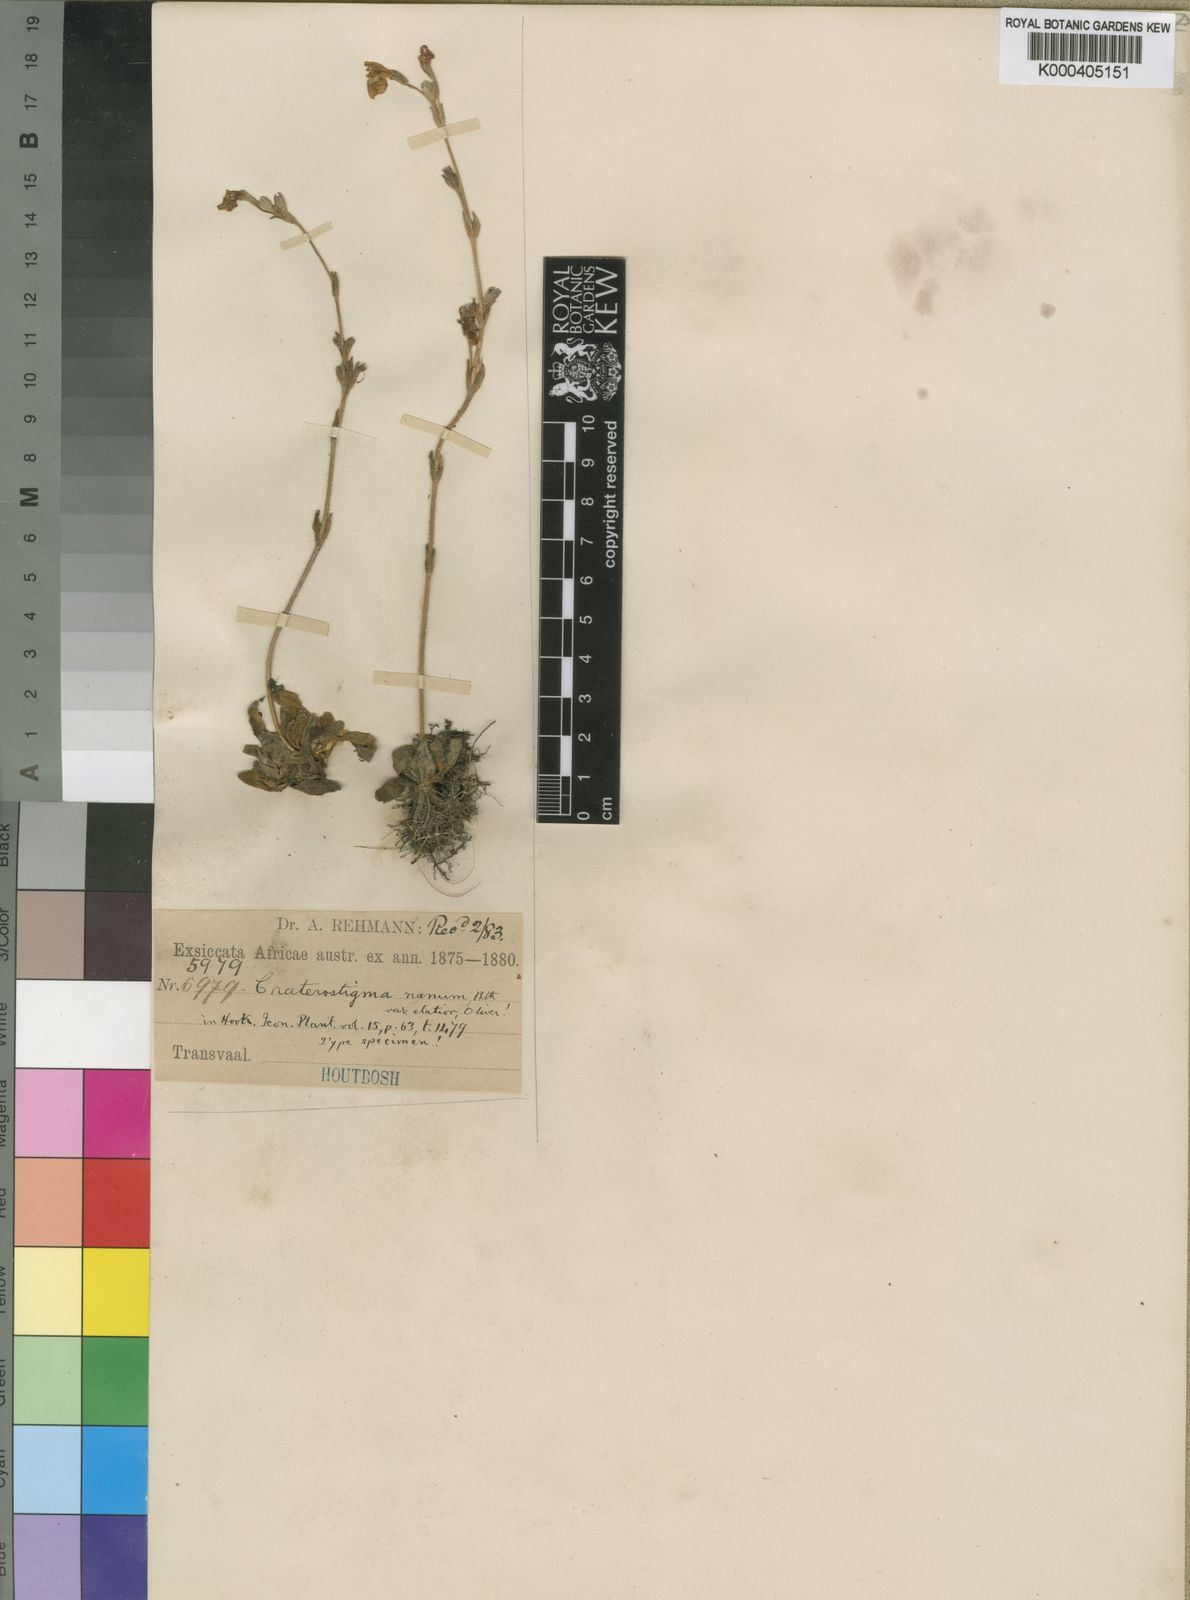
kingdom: Plantae
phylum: Tracheophyta
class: Magnoliopsida
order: Lamiales
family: Linderniaceae
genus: Craterostigma
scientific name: Craterostigma
